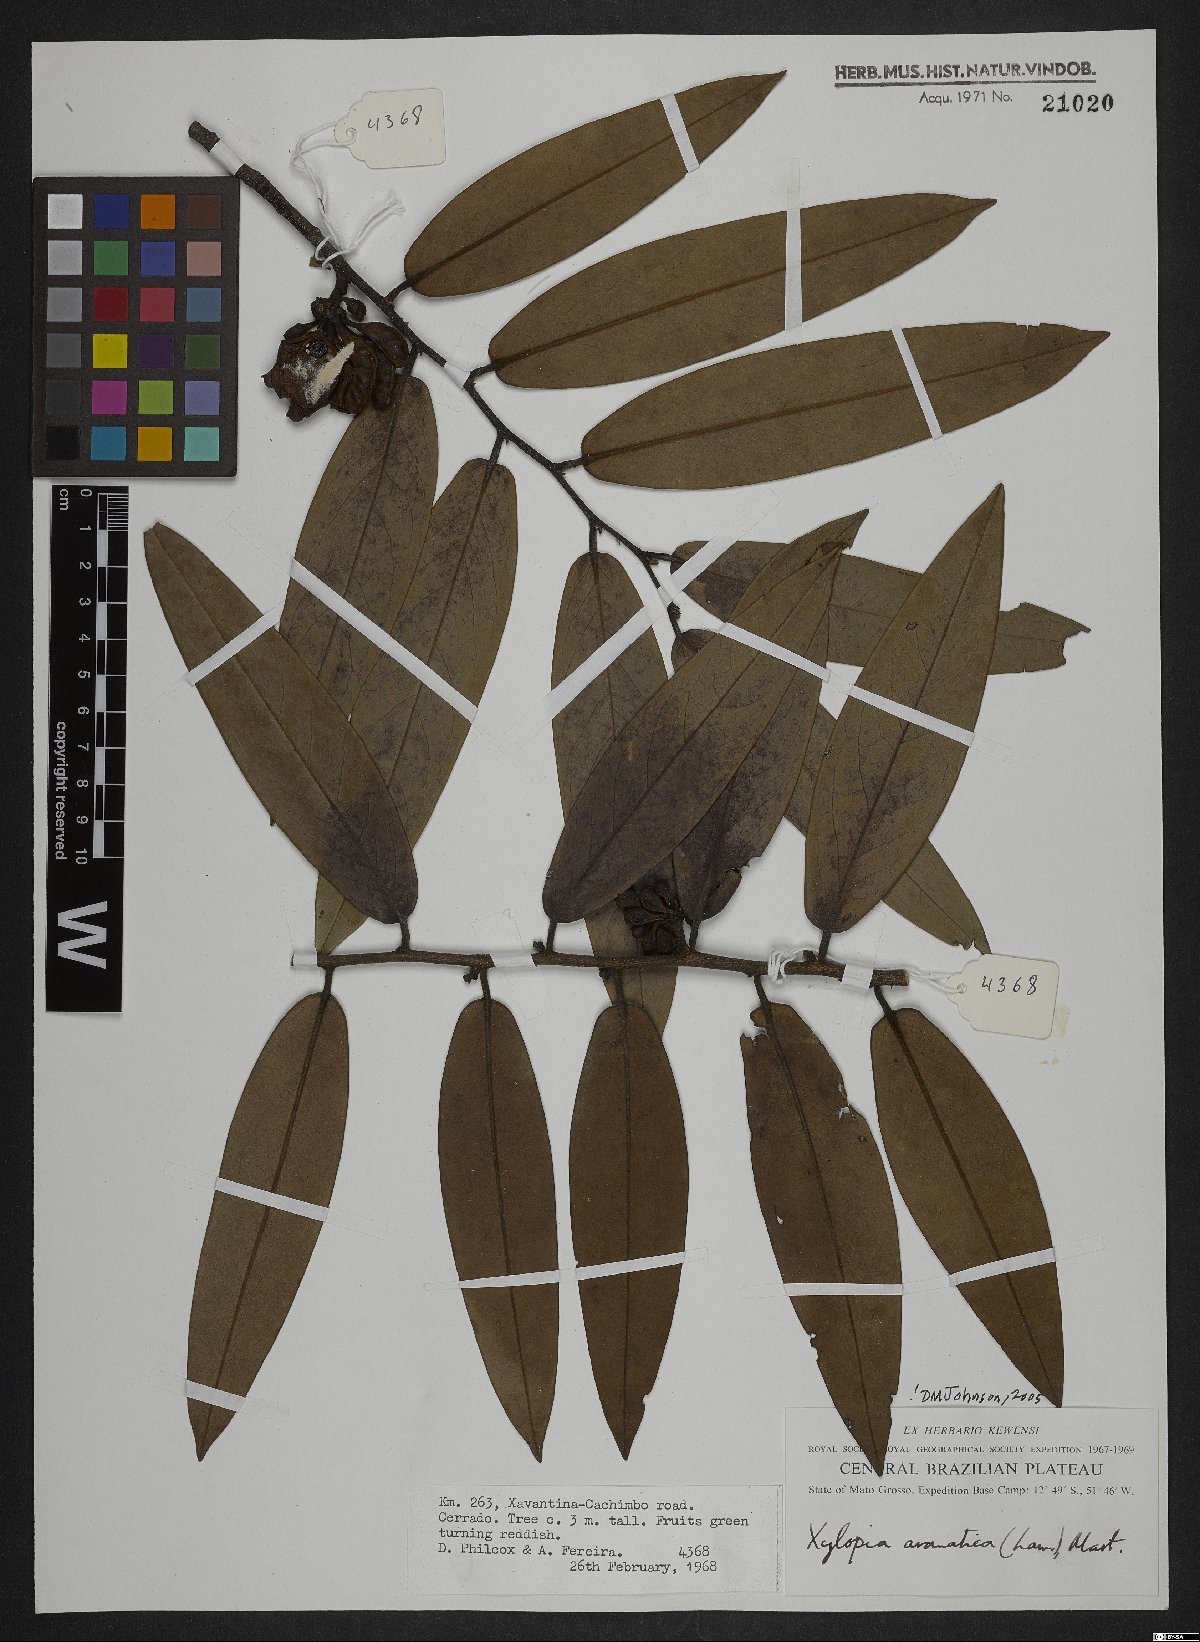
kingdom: Plantae
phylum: Tracheophyta
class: Magnoliopsida
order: Magnoliales
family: Annonaceae
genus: Xylopia
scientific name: Xylopia aromatica
